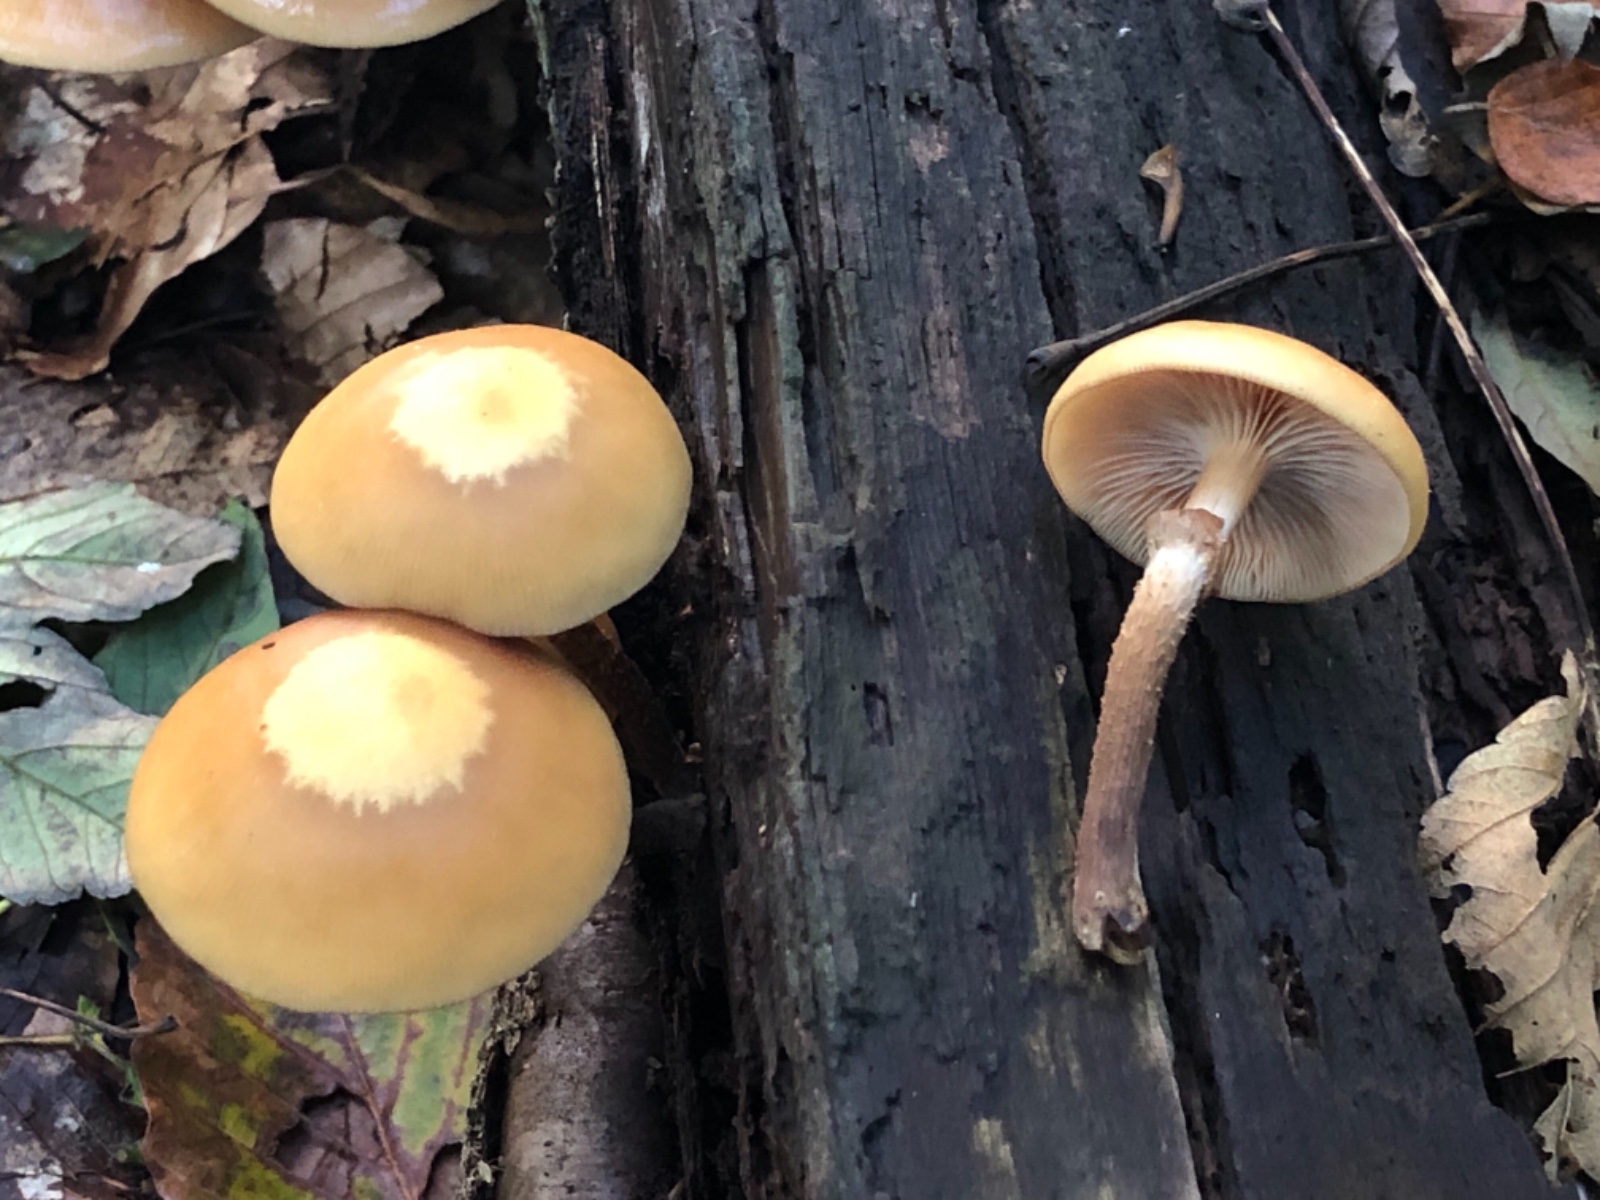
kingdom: Fungi
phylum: Basidiomycota
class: Agaricomycetes
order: Agaricales
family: Strophariaceae
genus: Kuehneromyces
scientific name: Kuehneromyces mutabilis
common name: foranderlig skælhat
